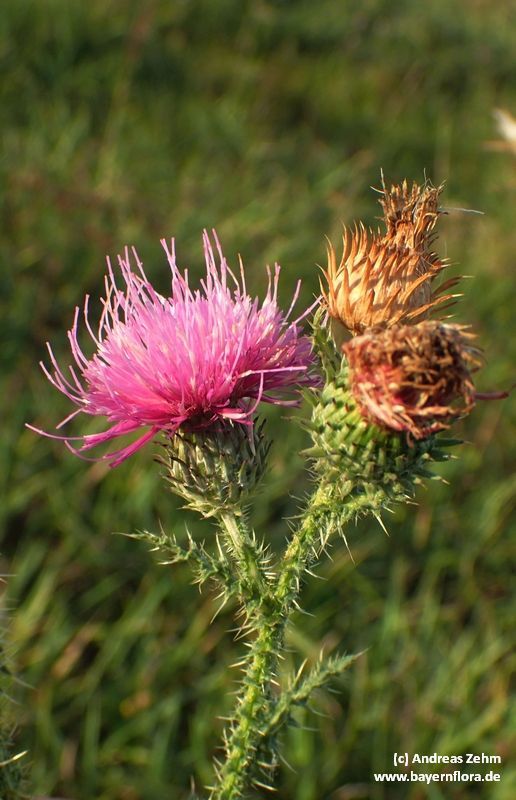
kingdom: Plantae
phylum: Tracheophyta
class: Magnoliopsida
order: Asterales
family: Asteraceae
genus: Carduus
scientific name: Carduus acanthoides
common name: Plumeless thistle
